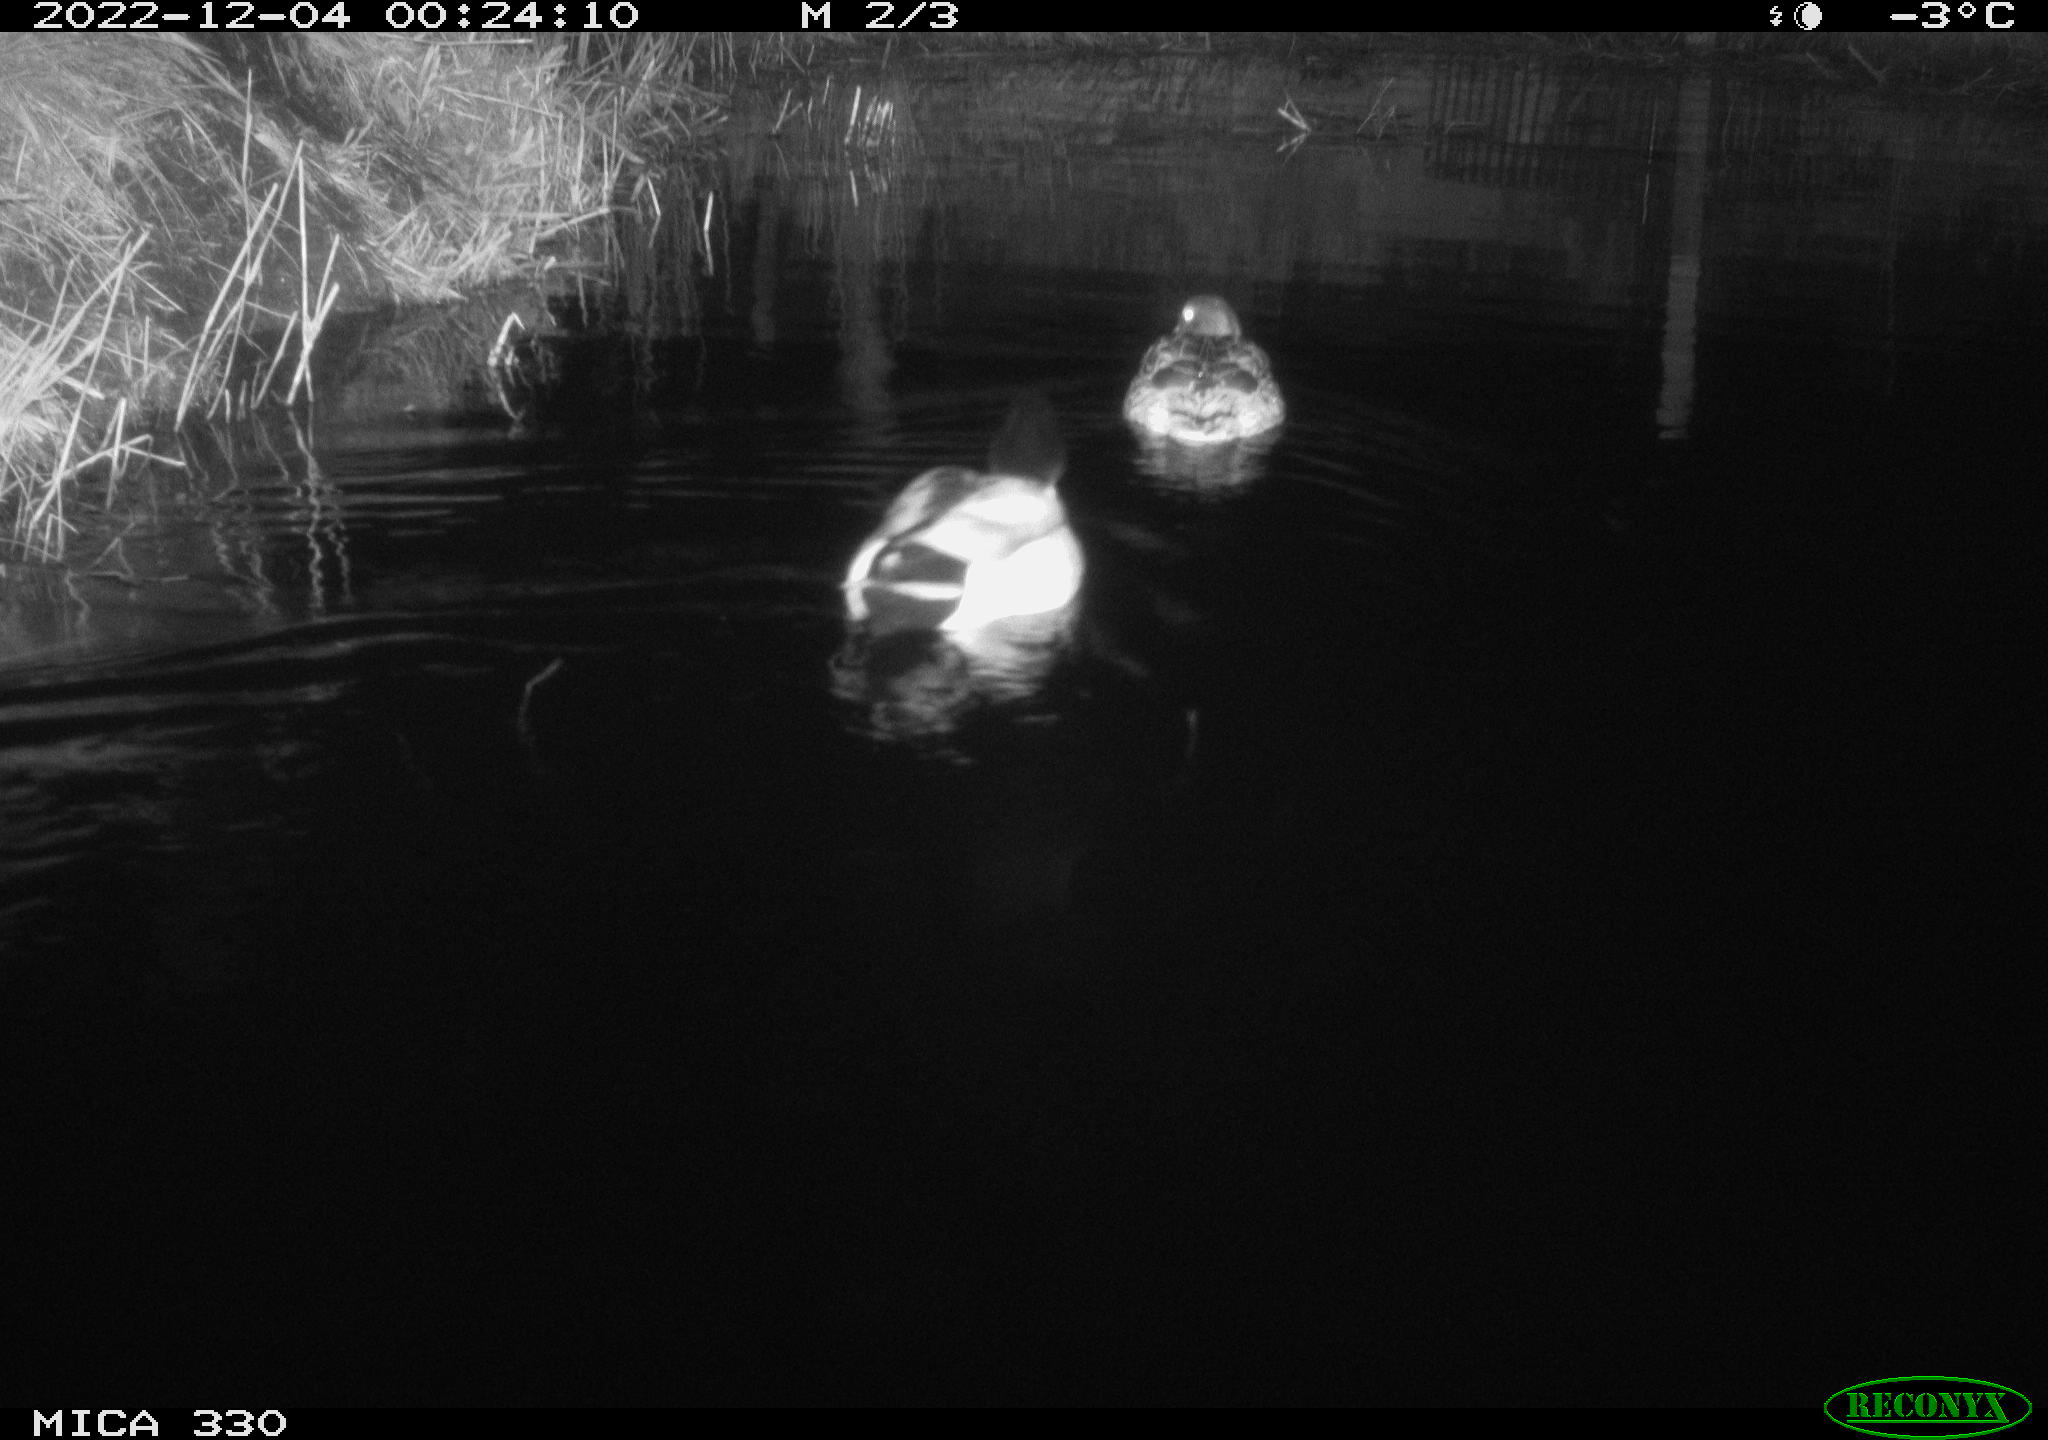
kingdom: Animalia
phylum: Chordata
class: Aves
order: Anseriformes
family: Anatidae
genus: Anas
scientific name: Anas
